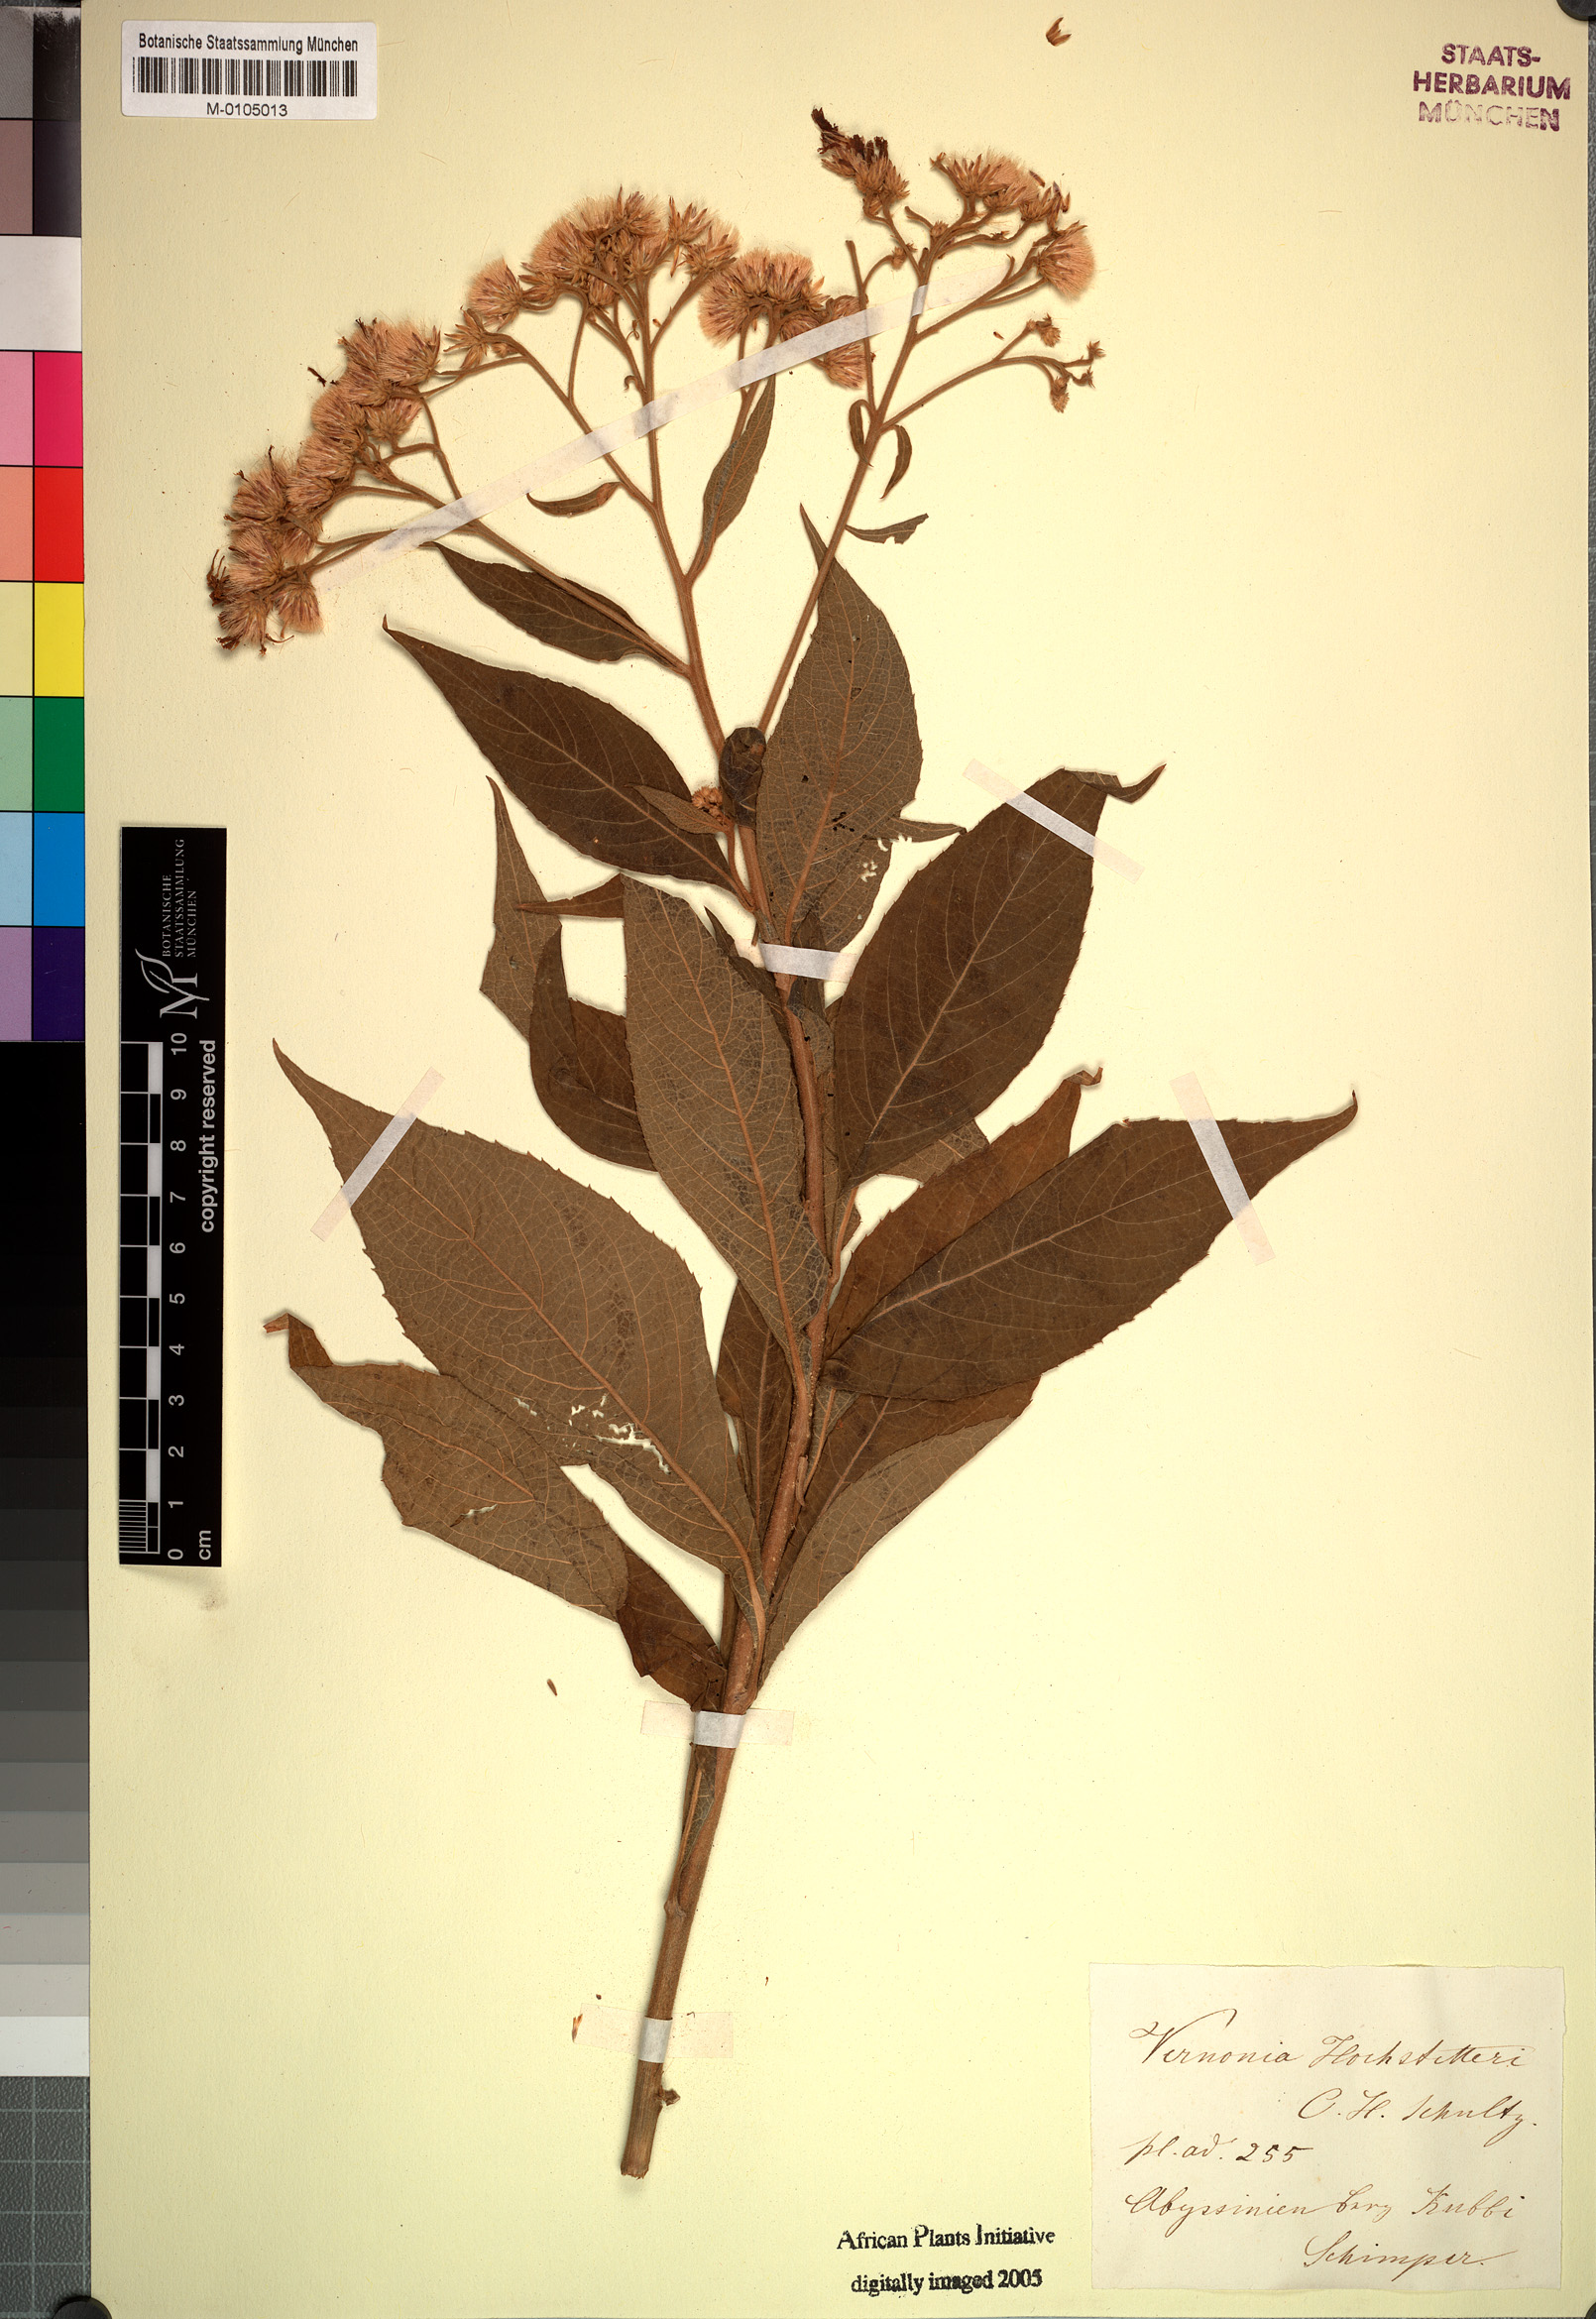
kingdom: Plantae
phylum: Tracheophyta
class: Magnoliopsida
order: Asterales
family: Asteraceae
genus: Vernonia
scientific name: Vernonia hochstetteri
